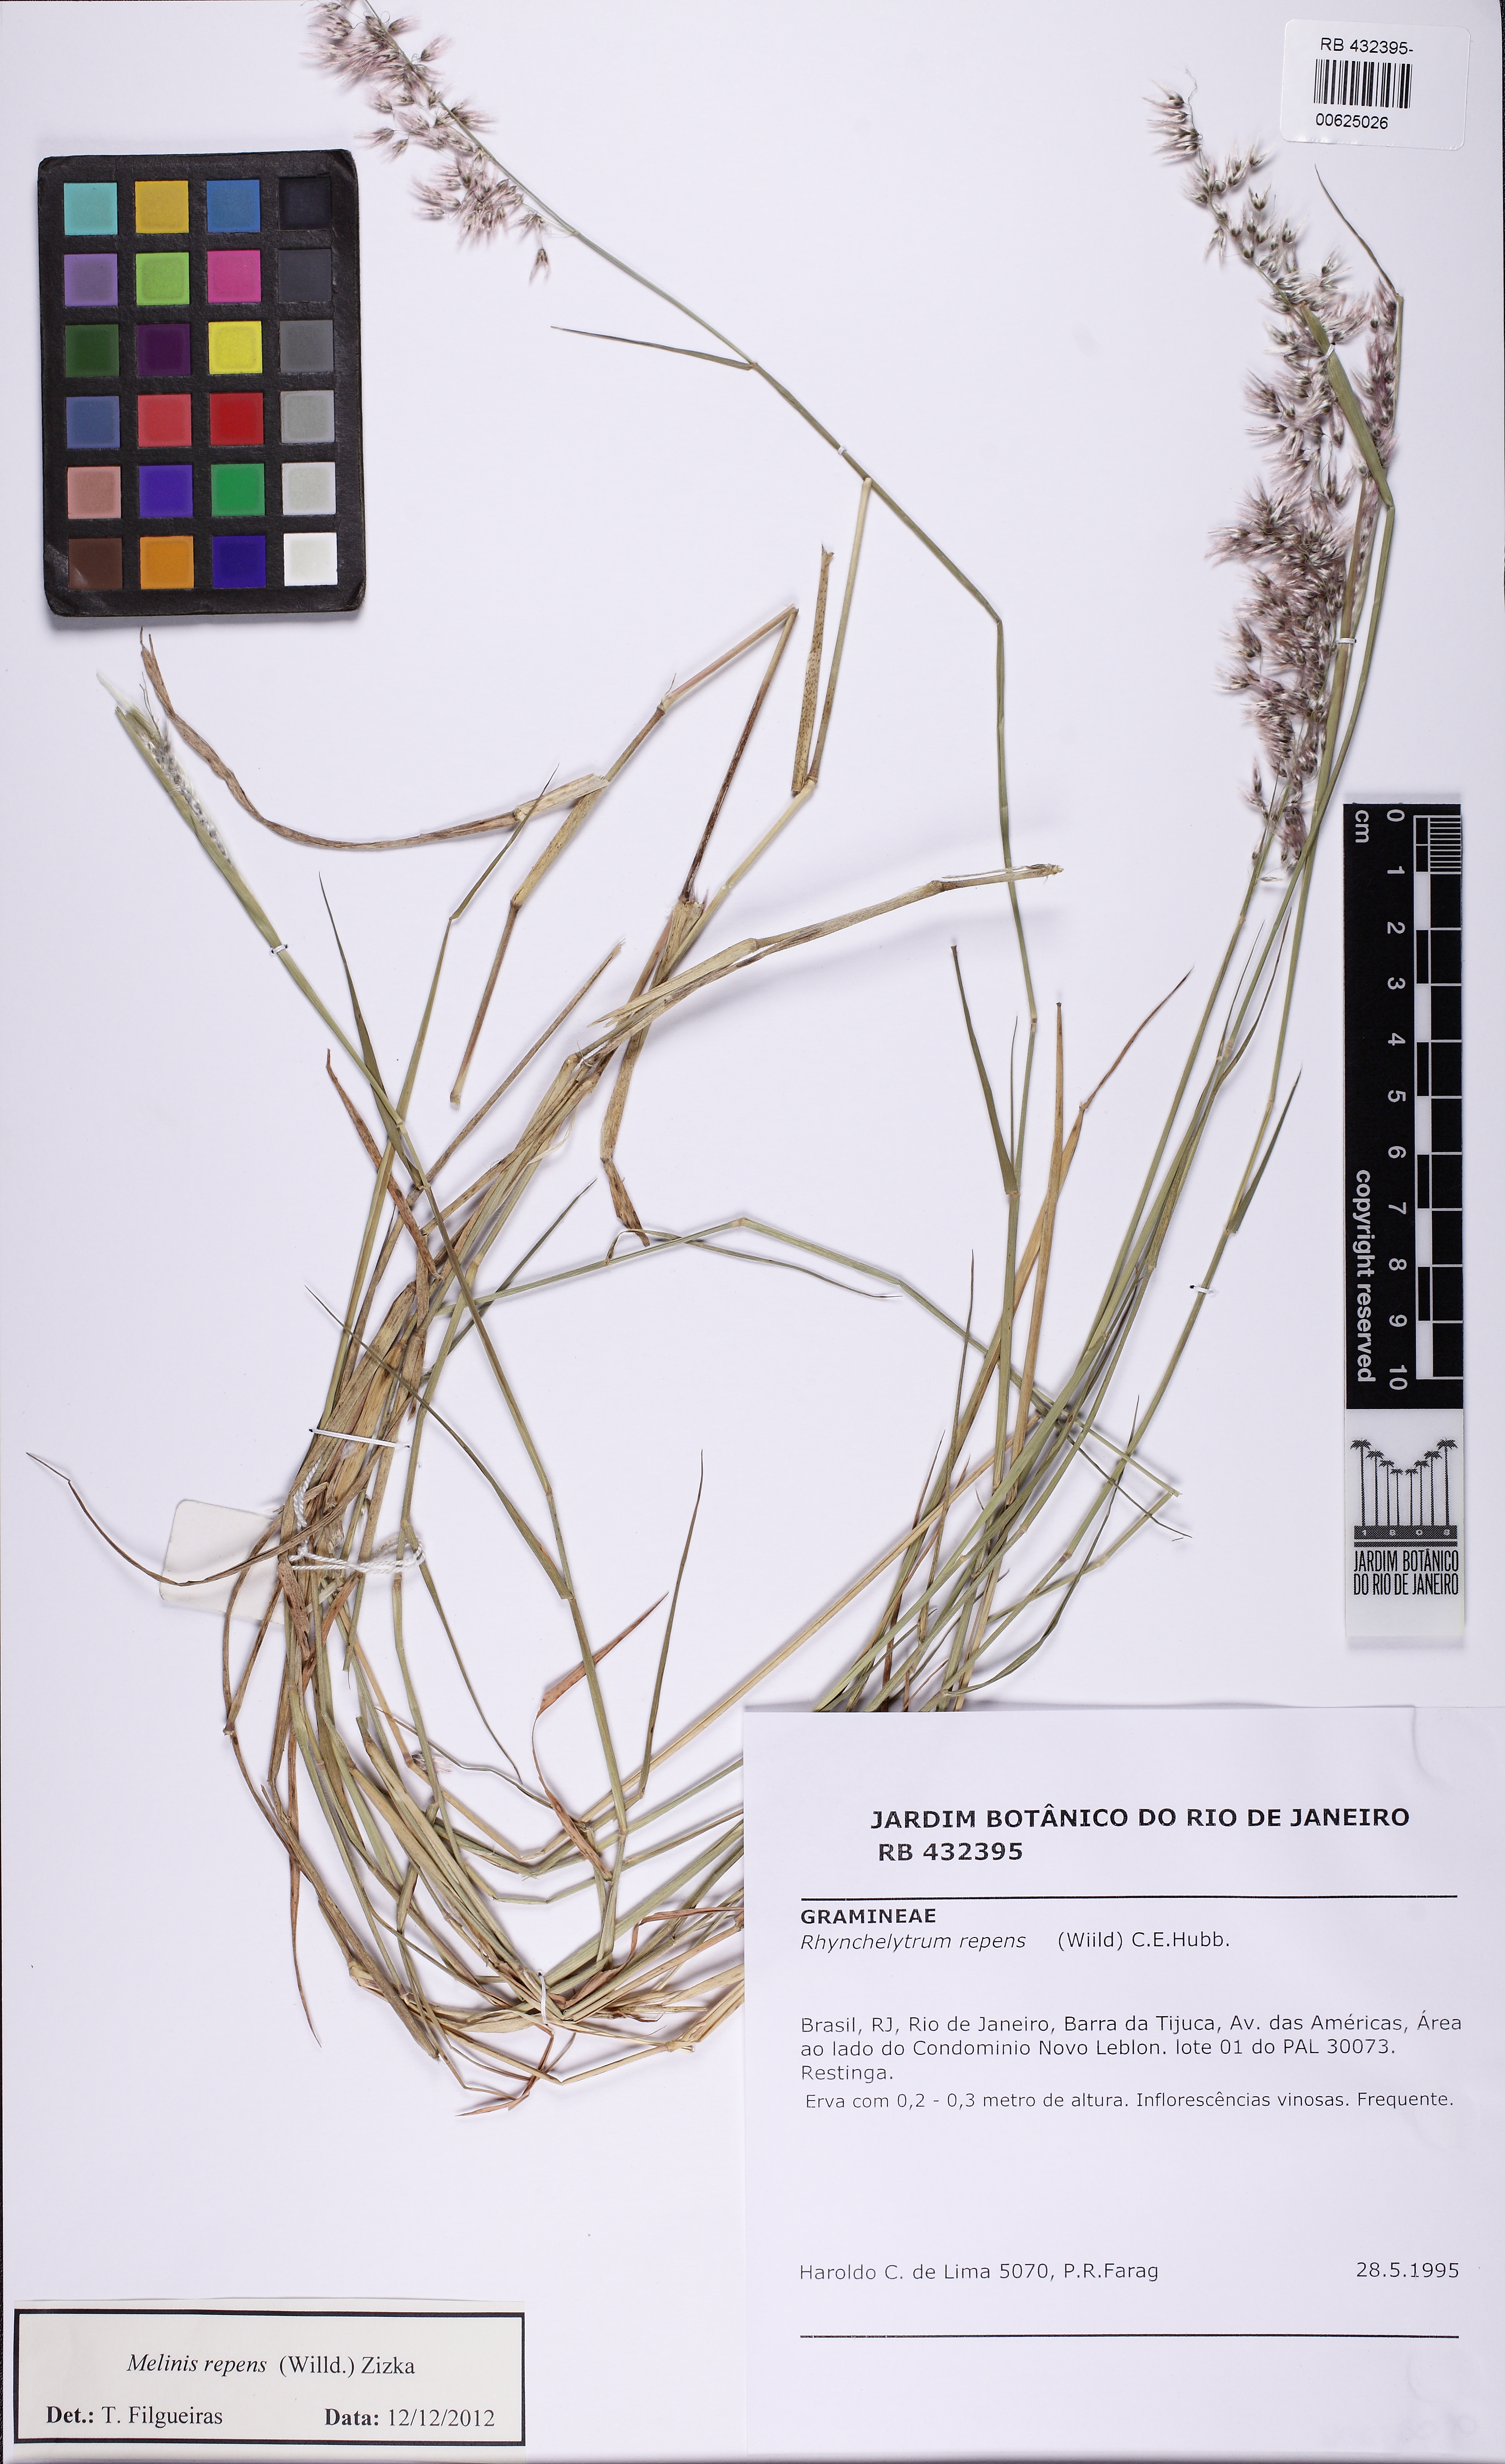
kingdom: Plantae
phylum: Tracheophyta
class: Liliopsida
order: Poales
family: Poaceae
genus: Melinis
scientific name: Melinis repens
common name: Rose natal grass
